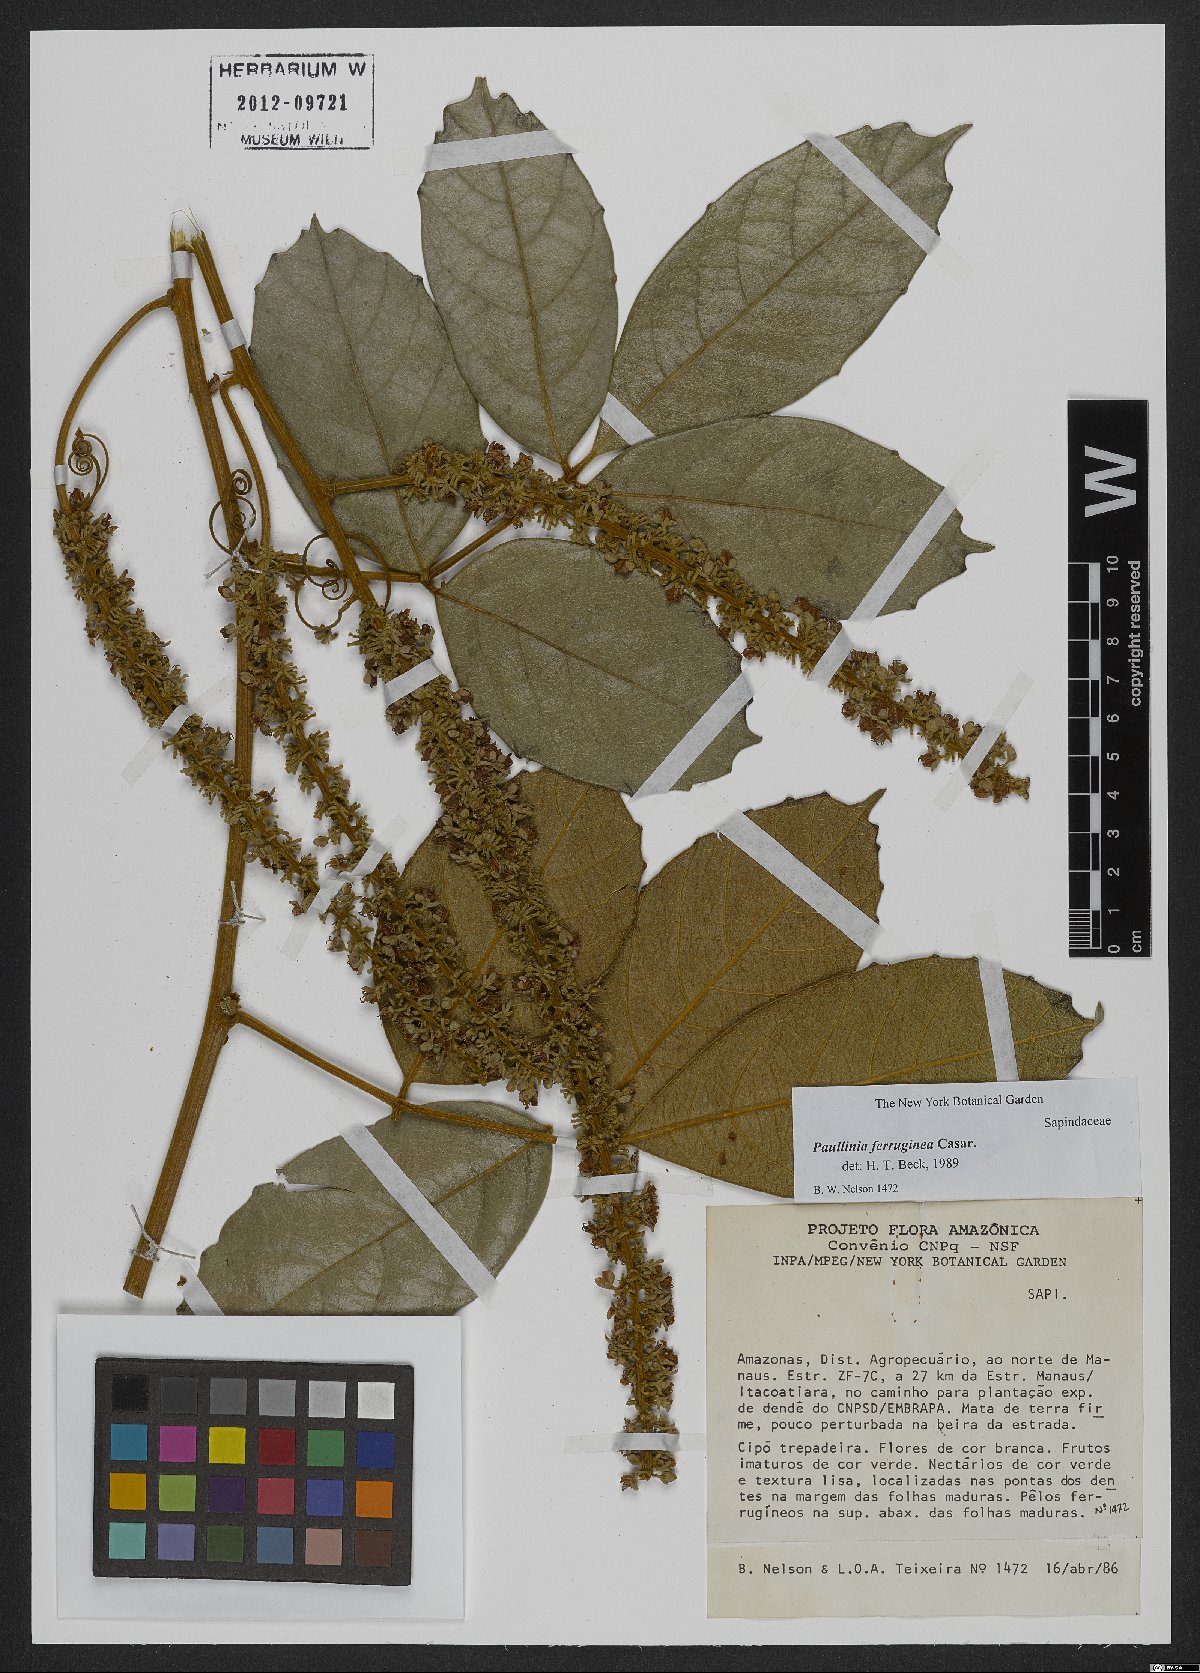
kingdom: Plantae
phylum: Tracheophyta
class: Magnoliopsida
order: Sapindales
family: Sapindaceae
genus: Paullinia
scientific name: Paullinia ferruginea
